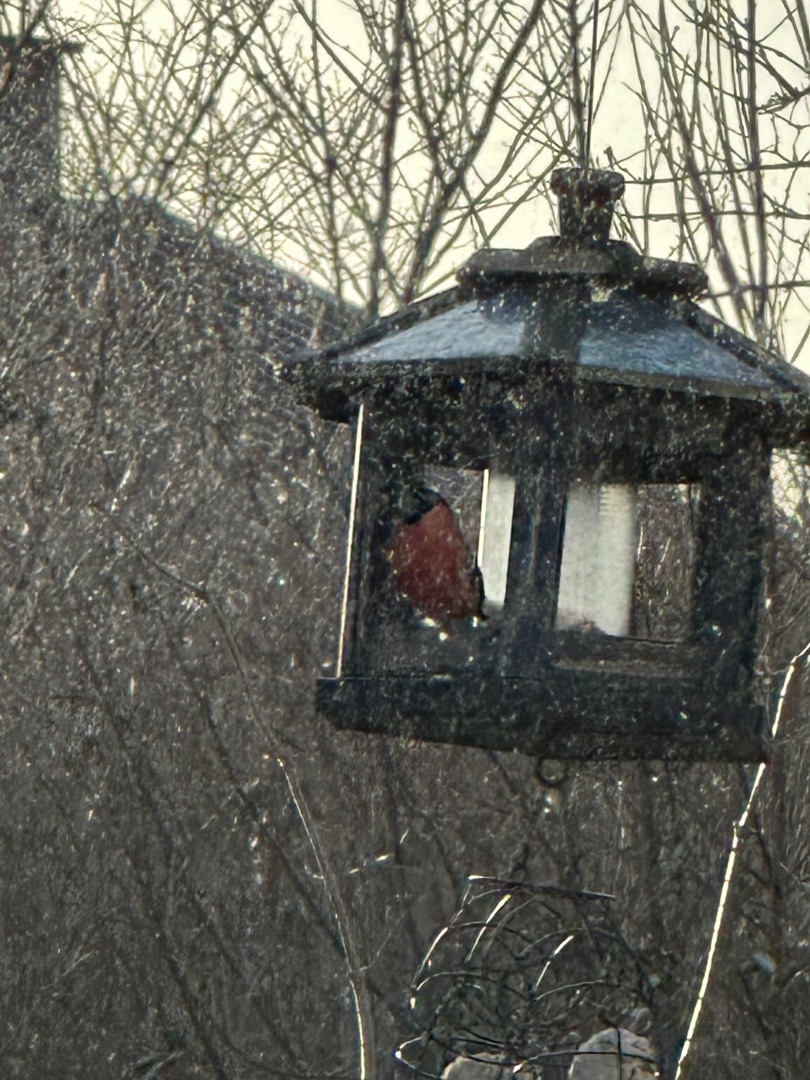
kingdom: Animalia
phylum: Chordata
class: Aves
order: Passeriformes
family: Fringillidae
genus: Pyrrhula
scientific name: Pyrrhula pyrrhula
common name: Dompap
